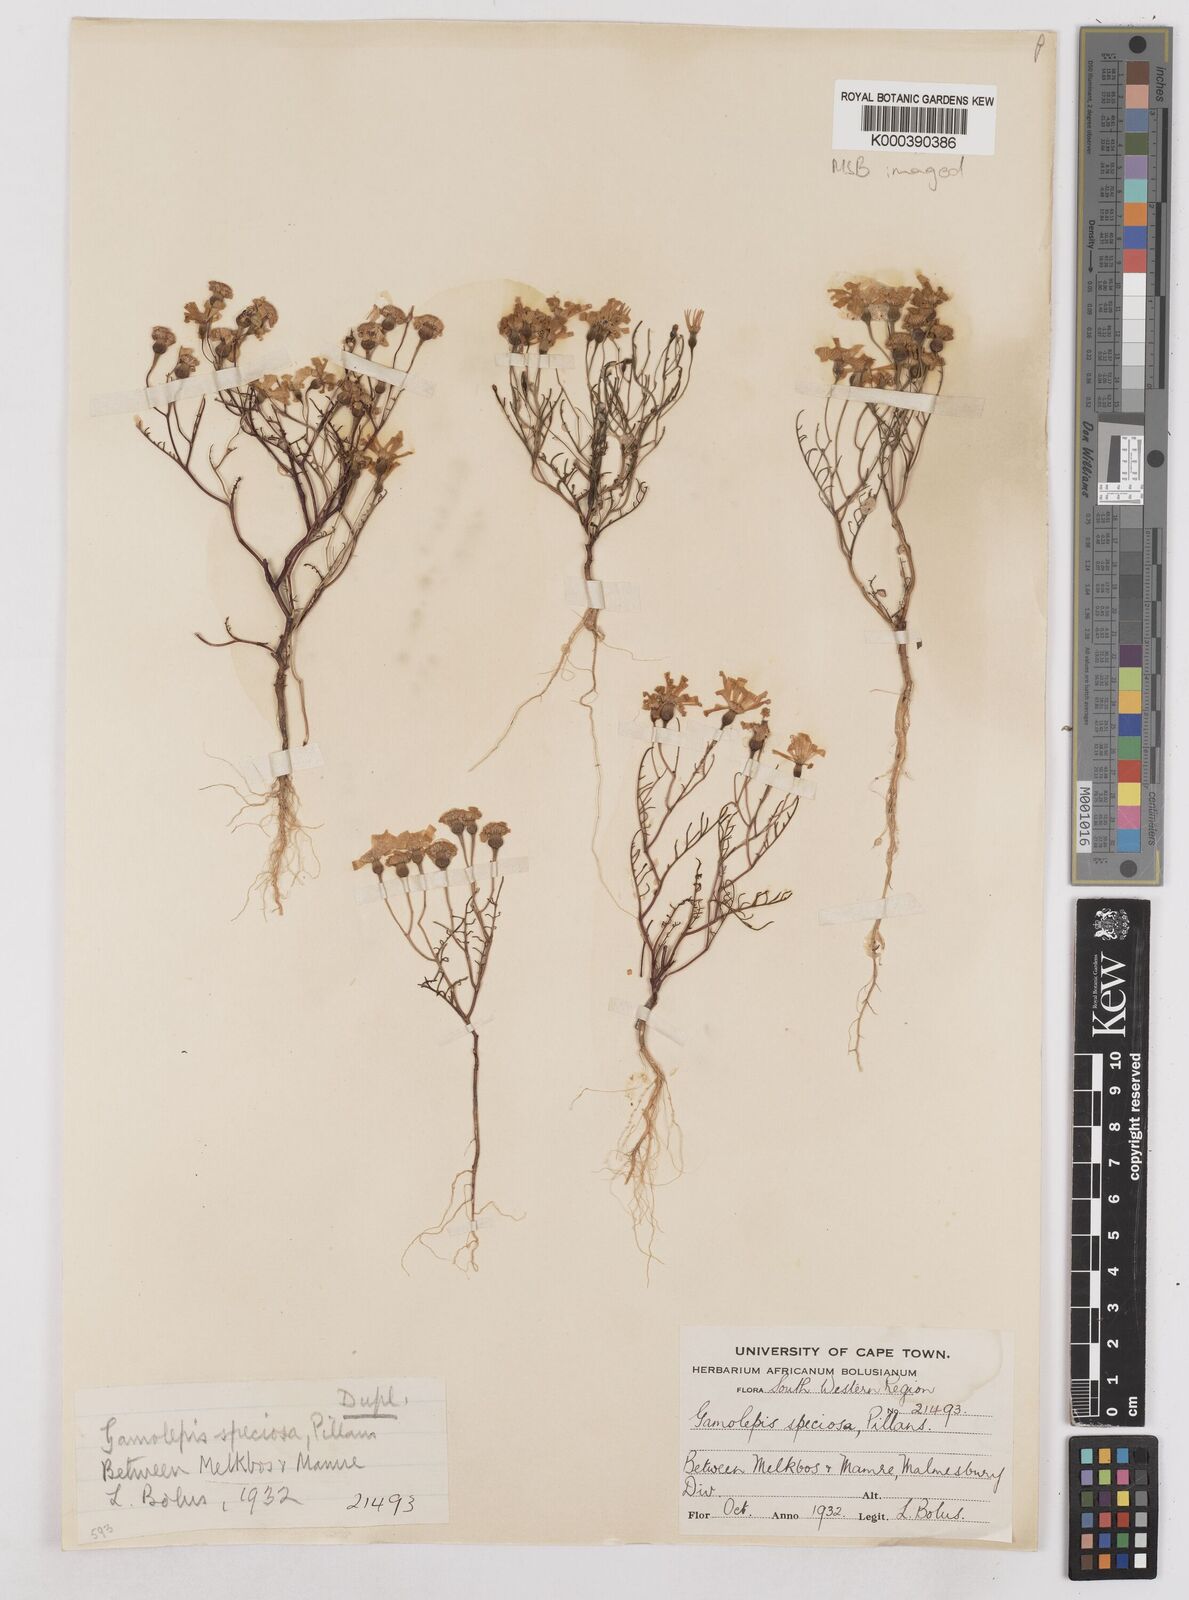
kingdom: Plantae
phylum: Tracheophyta
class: Magnoliopsida
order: Asterales
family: Asteraceae
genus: Steirodiscus
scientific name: Steirodiscus speciosus
